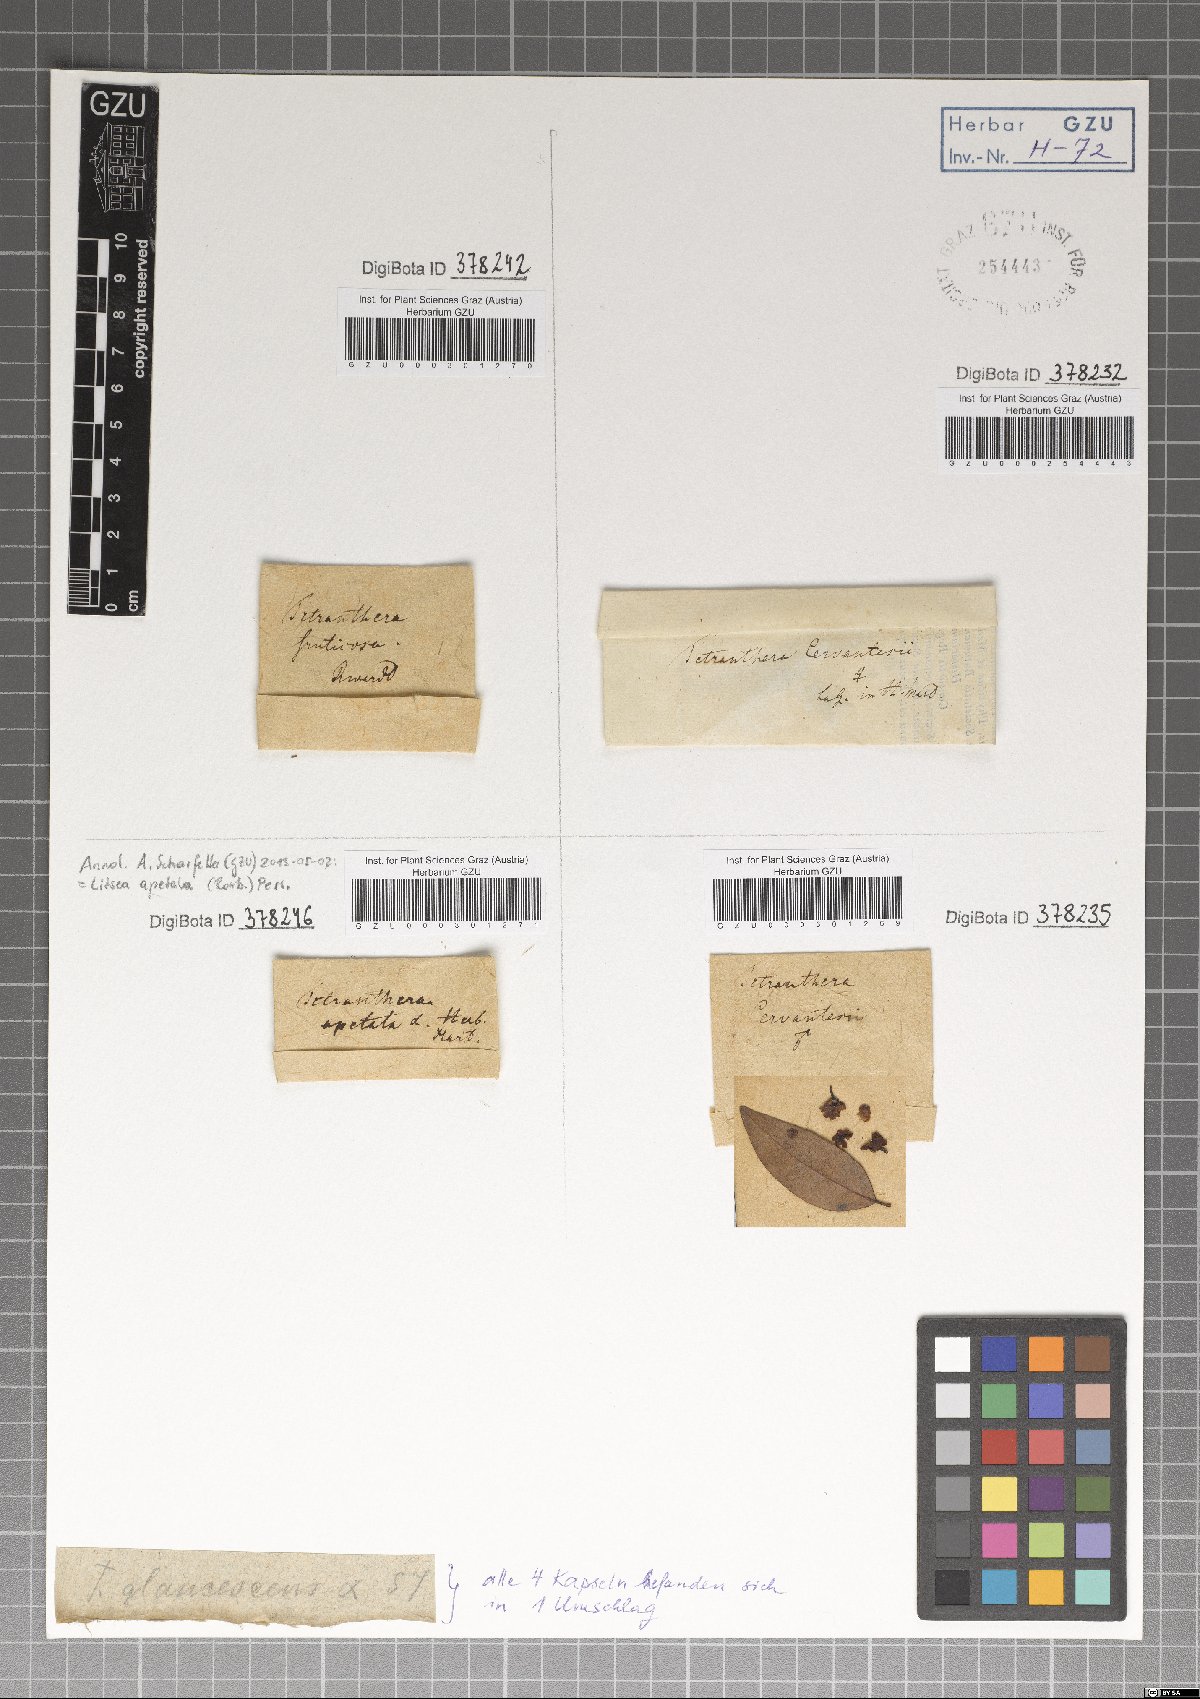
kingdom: Plantae
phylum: Tracheophyta
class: Magnoliopsida
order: Laurales
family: Lauraceae
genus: Licaria
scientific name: Licaria triandra
